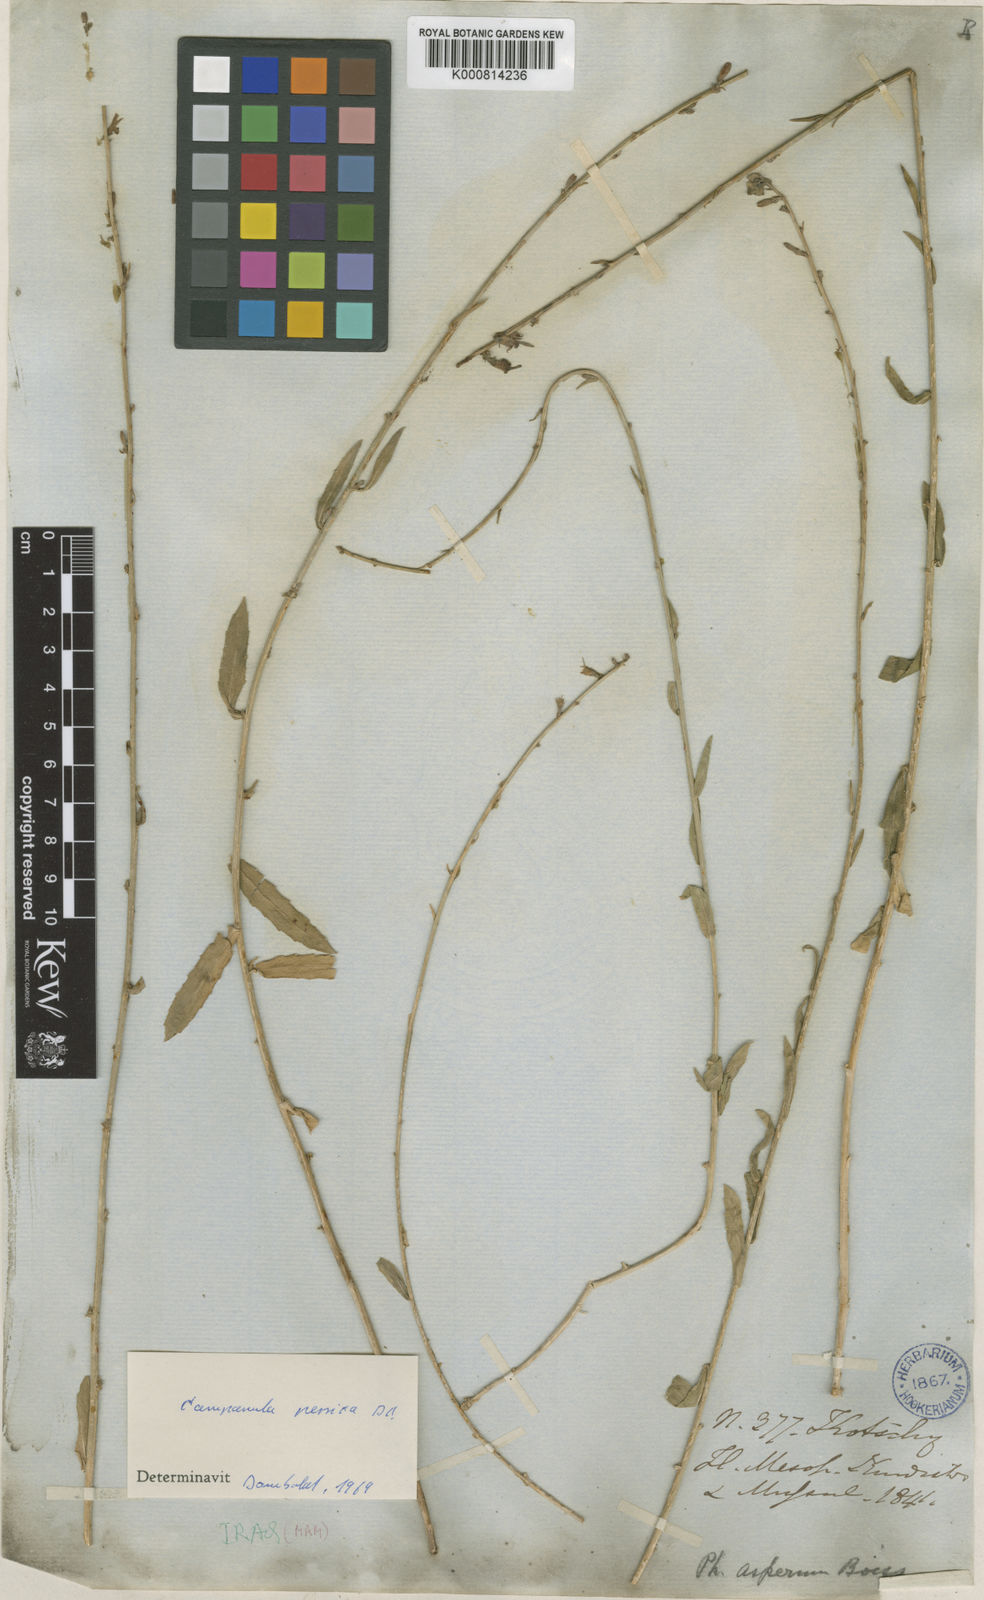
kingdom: Plantae
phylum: Tracheophyta
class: Magnoliopsida
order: Asterales
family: Campanulaceae
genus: Asyneuma
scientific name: Asyneuma persicum
